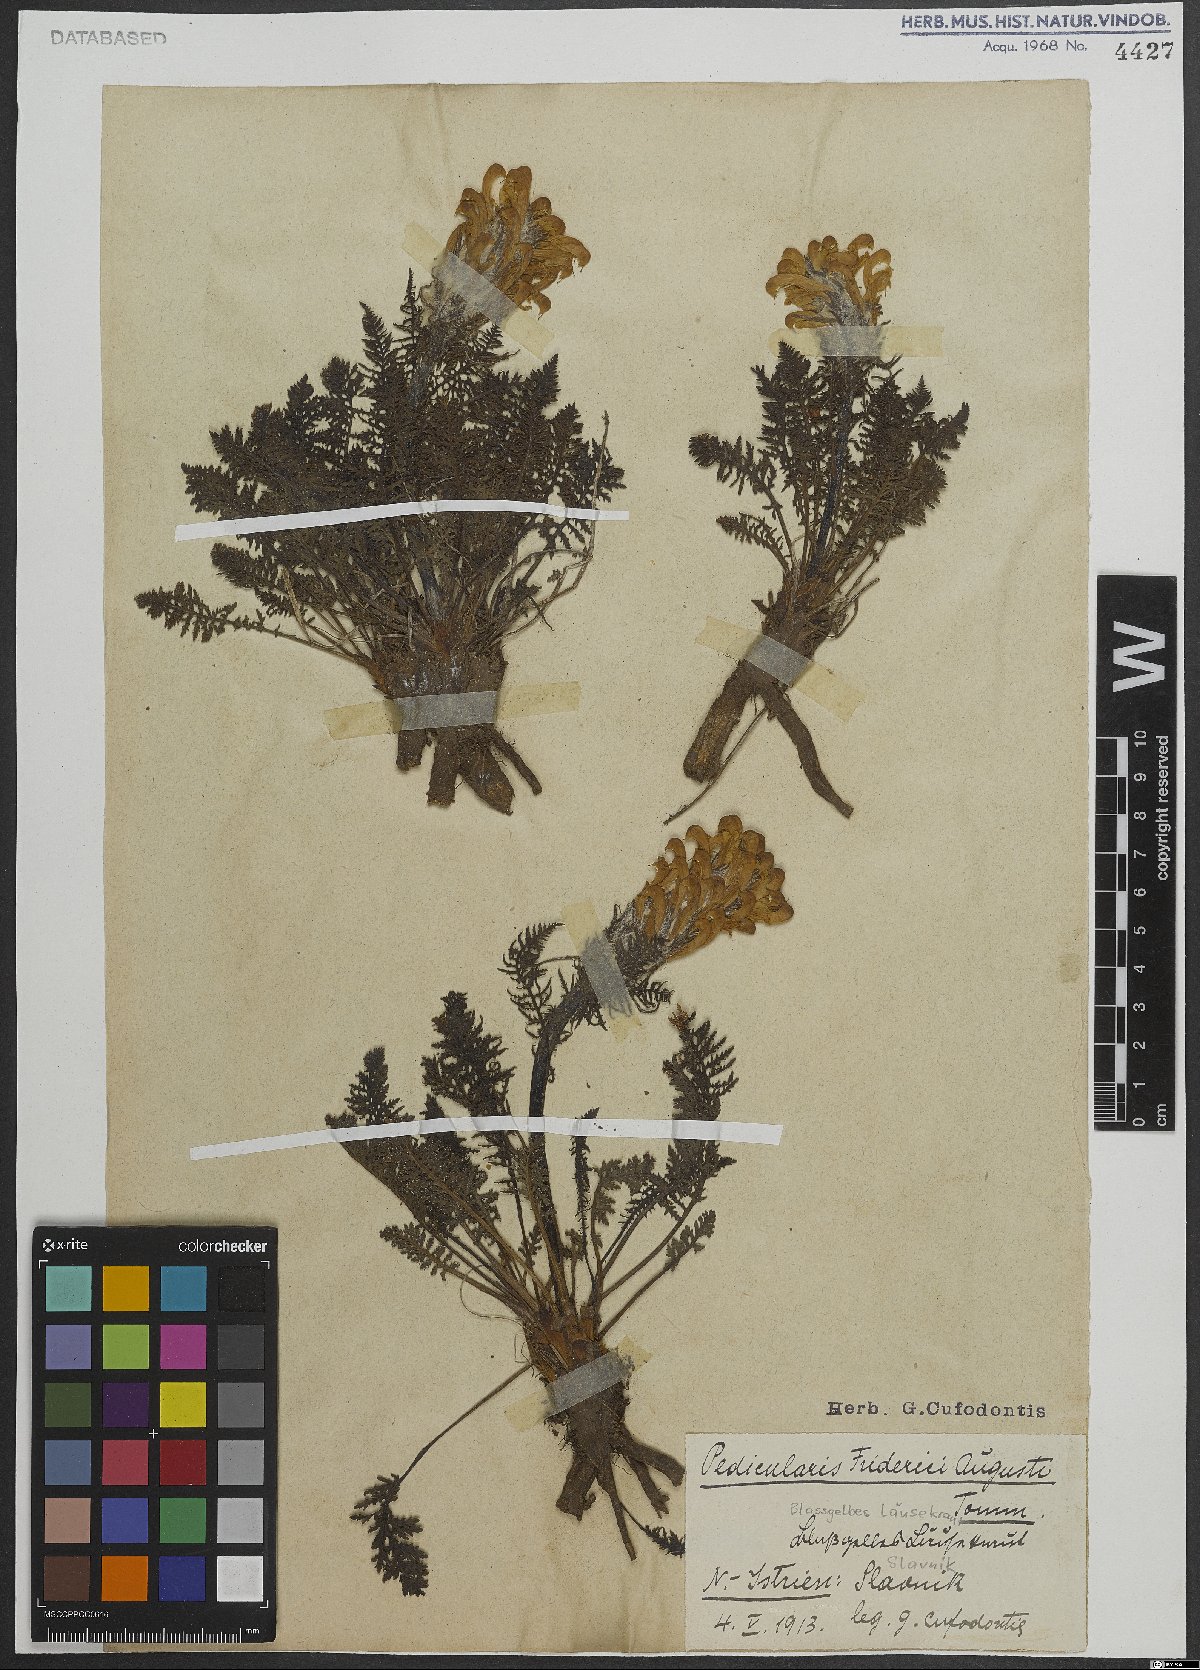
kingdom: Plantae
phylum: Tracheophyta
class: Magnoliopsida
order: Lamiales
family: Orobanchaceae
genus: Pedicularis
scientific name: Pedicularis friderici-augusti
